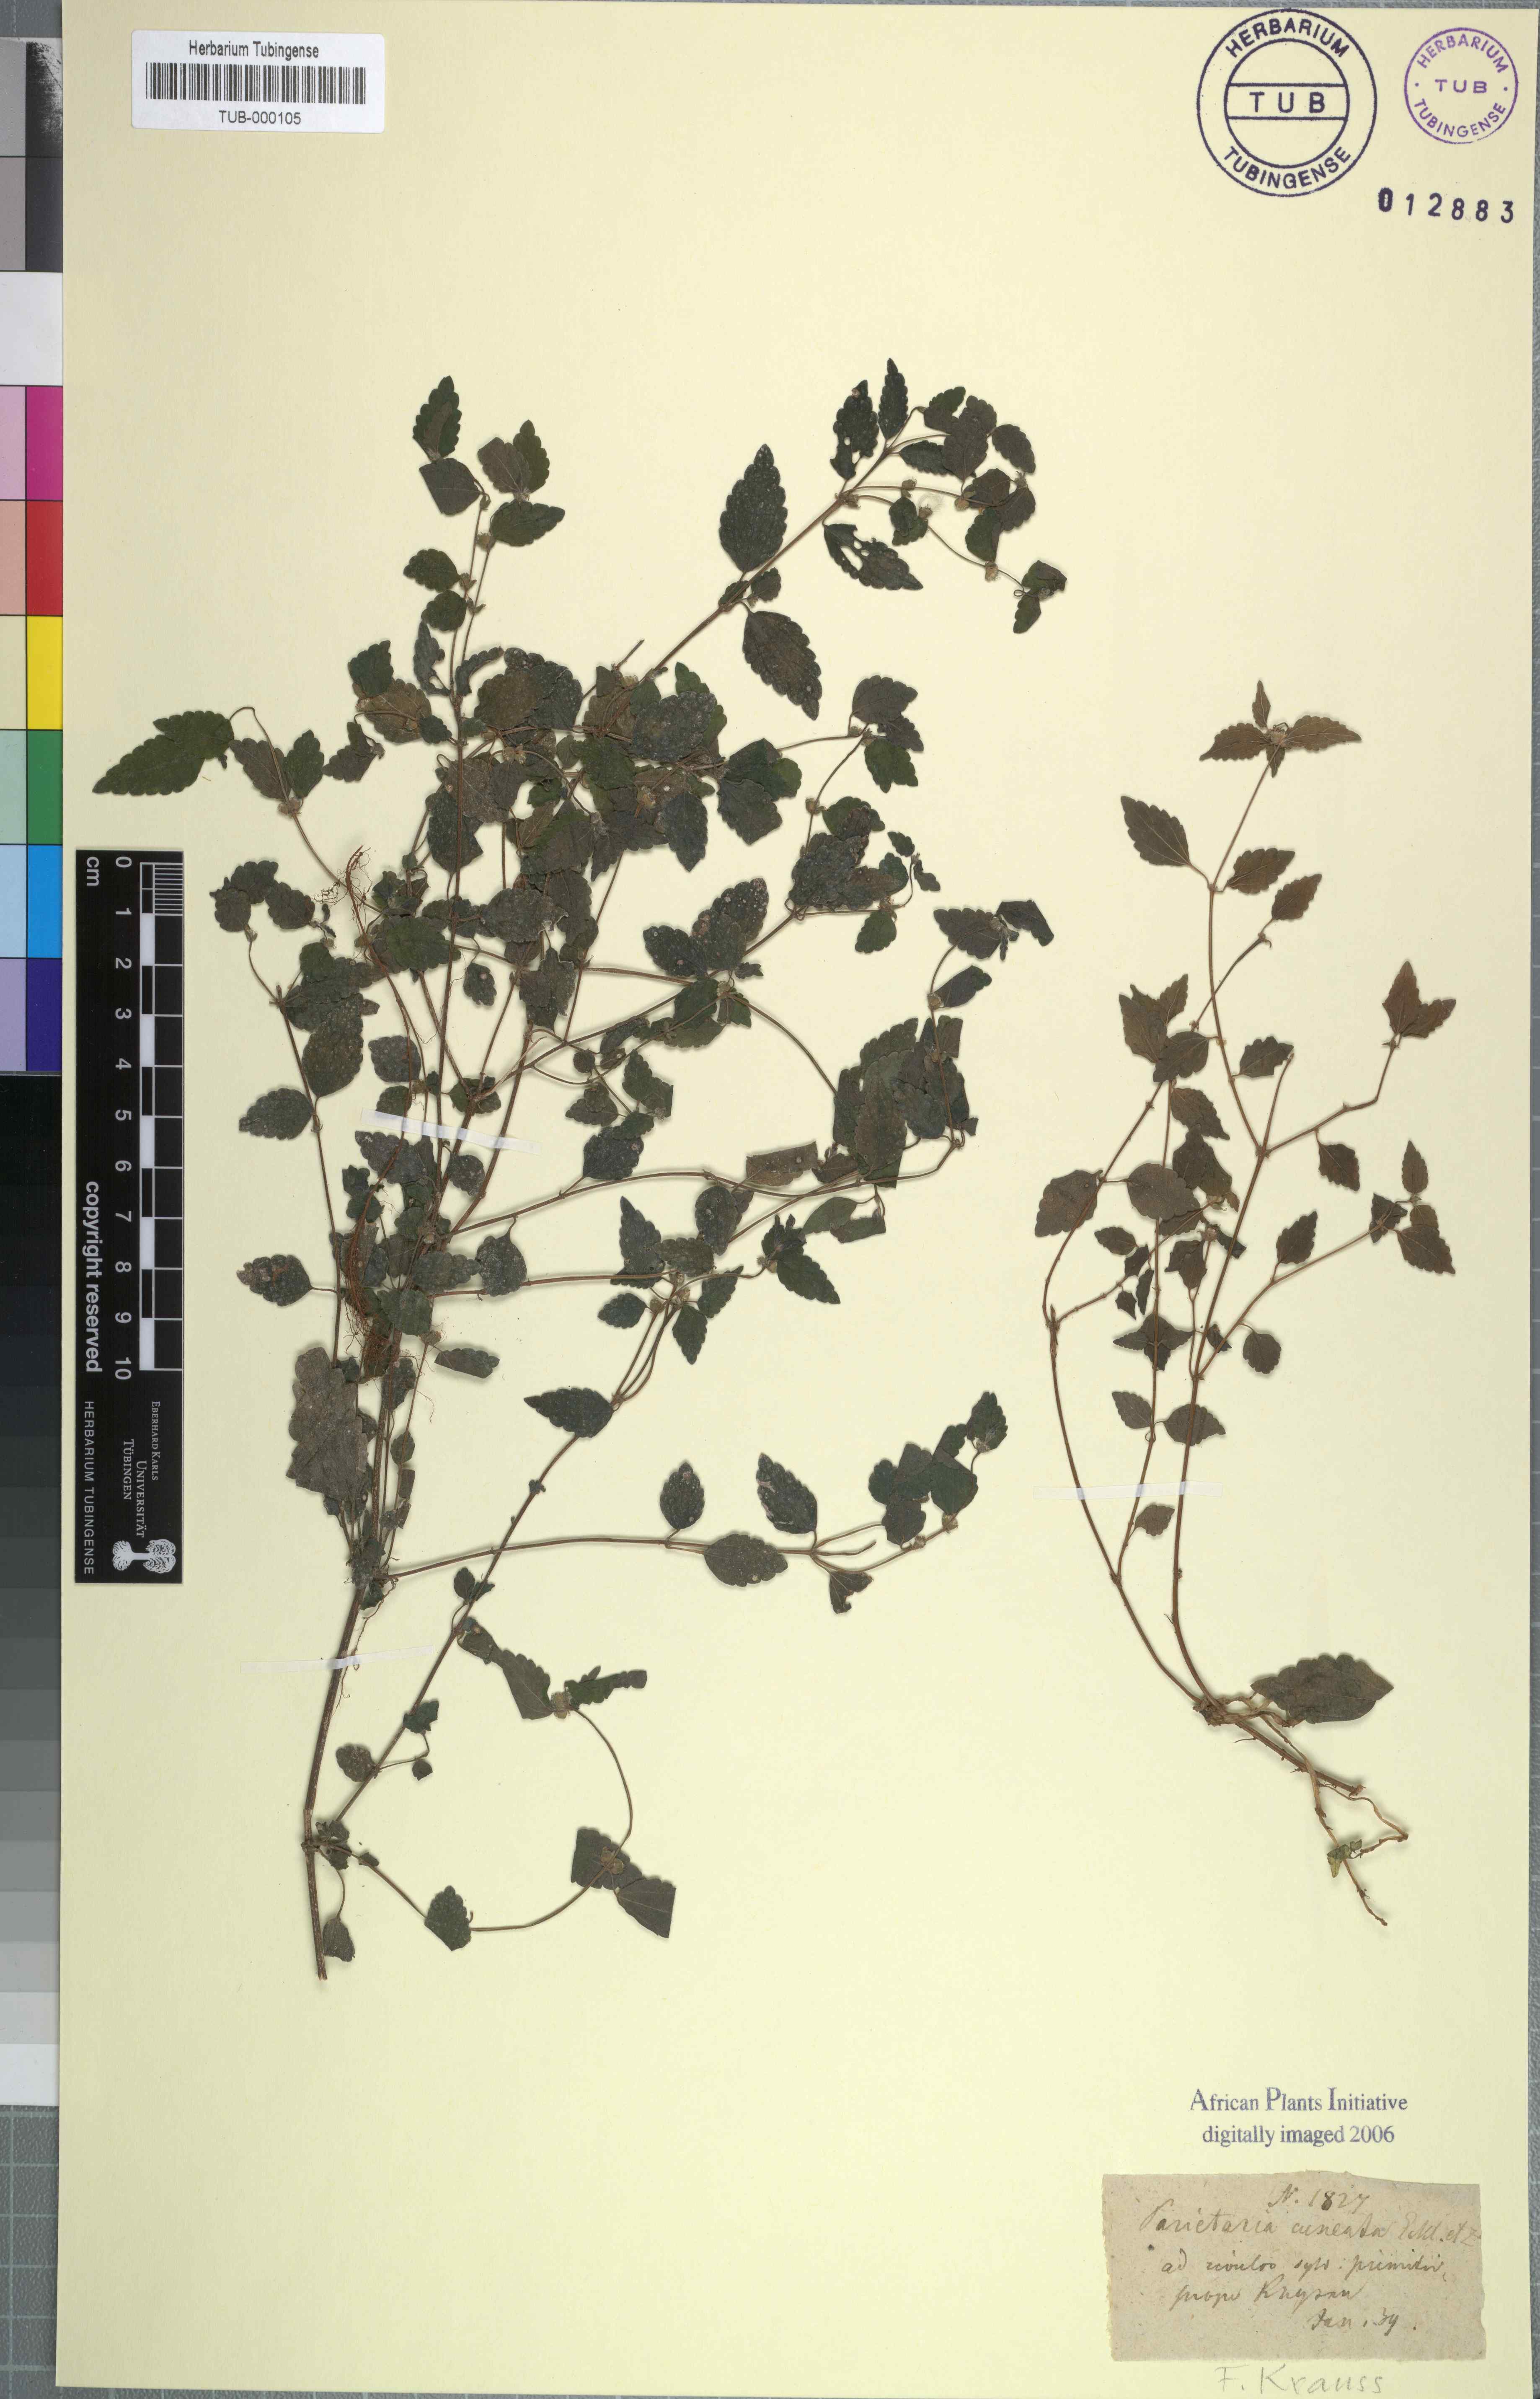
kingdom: Plantae
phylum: Tracheophyta
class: Magnoliopsida
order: Rosales
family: Urticaceae
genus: Droguetia
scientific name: Droguetia ambigua
